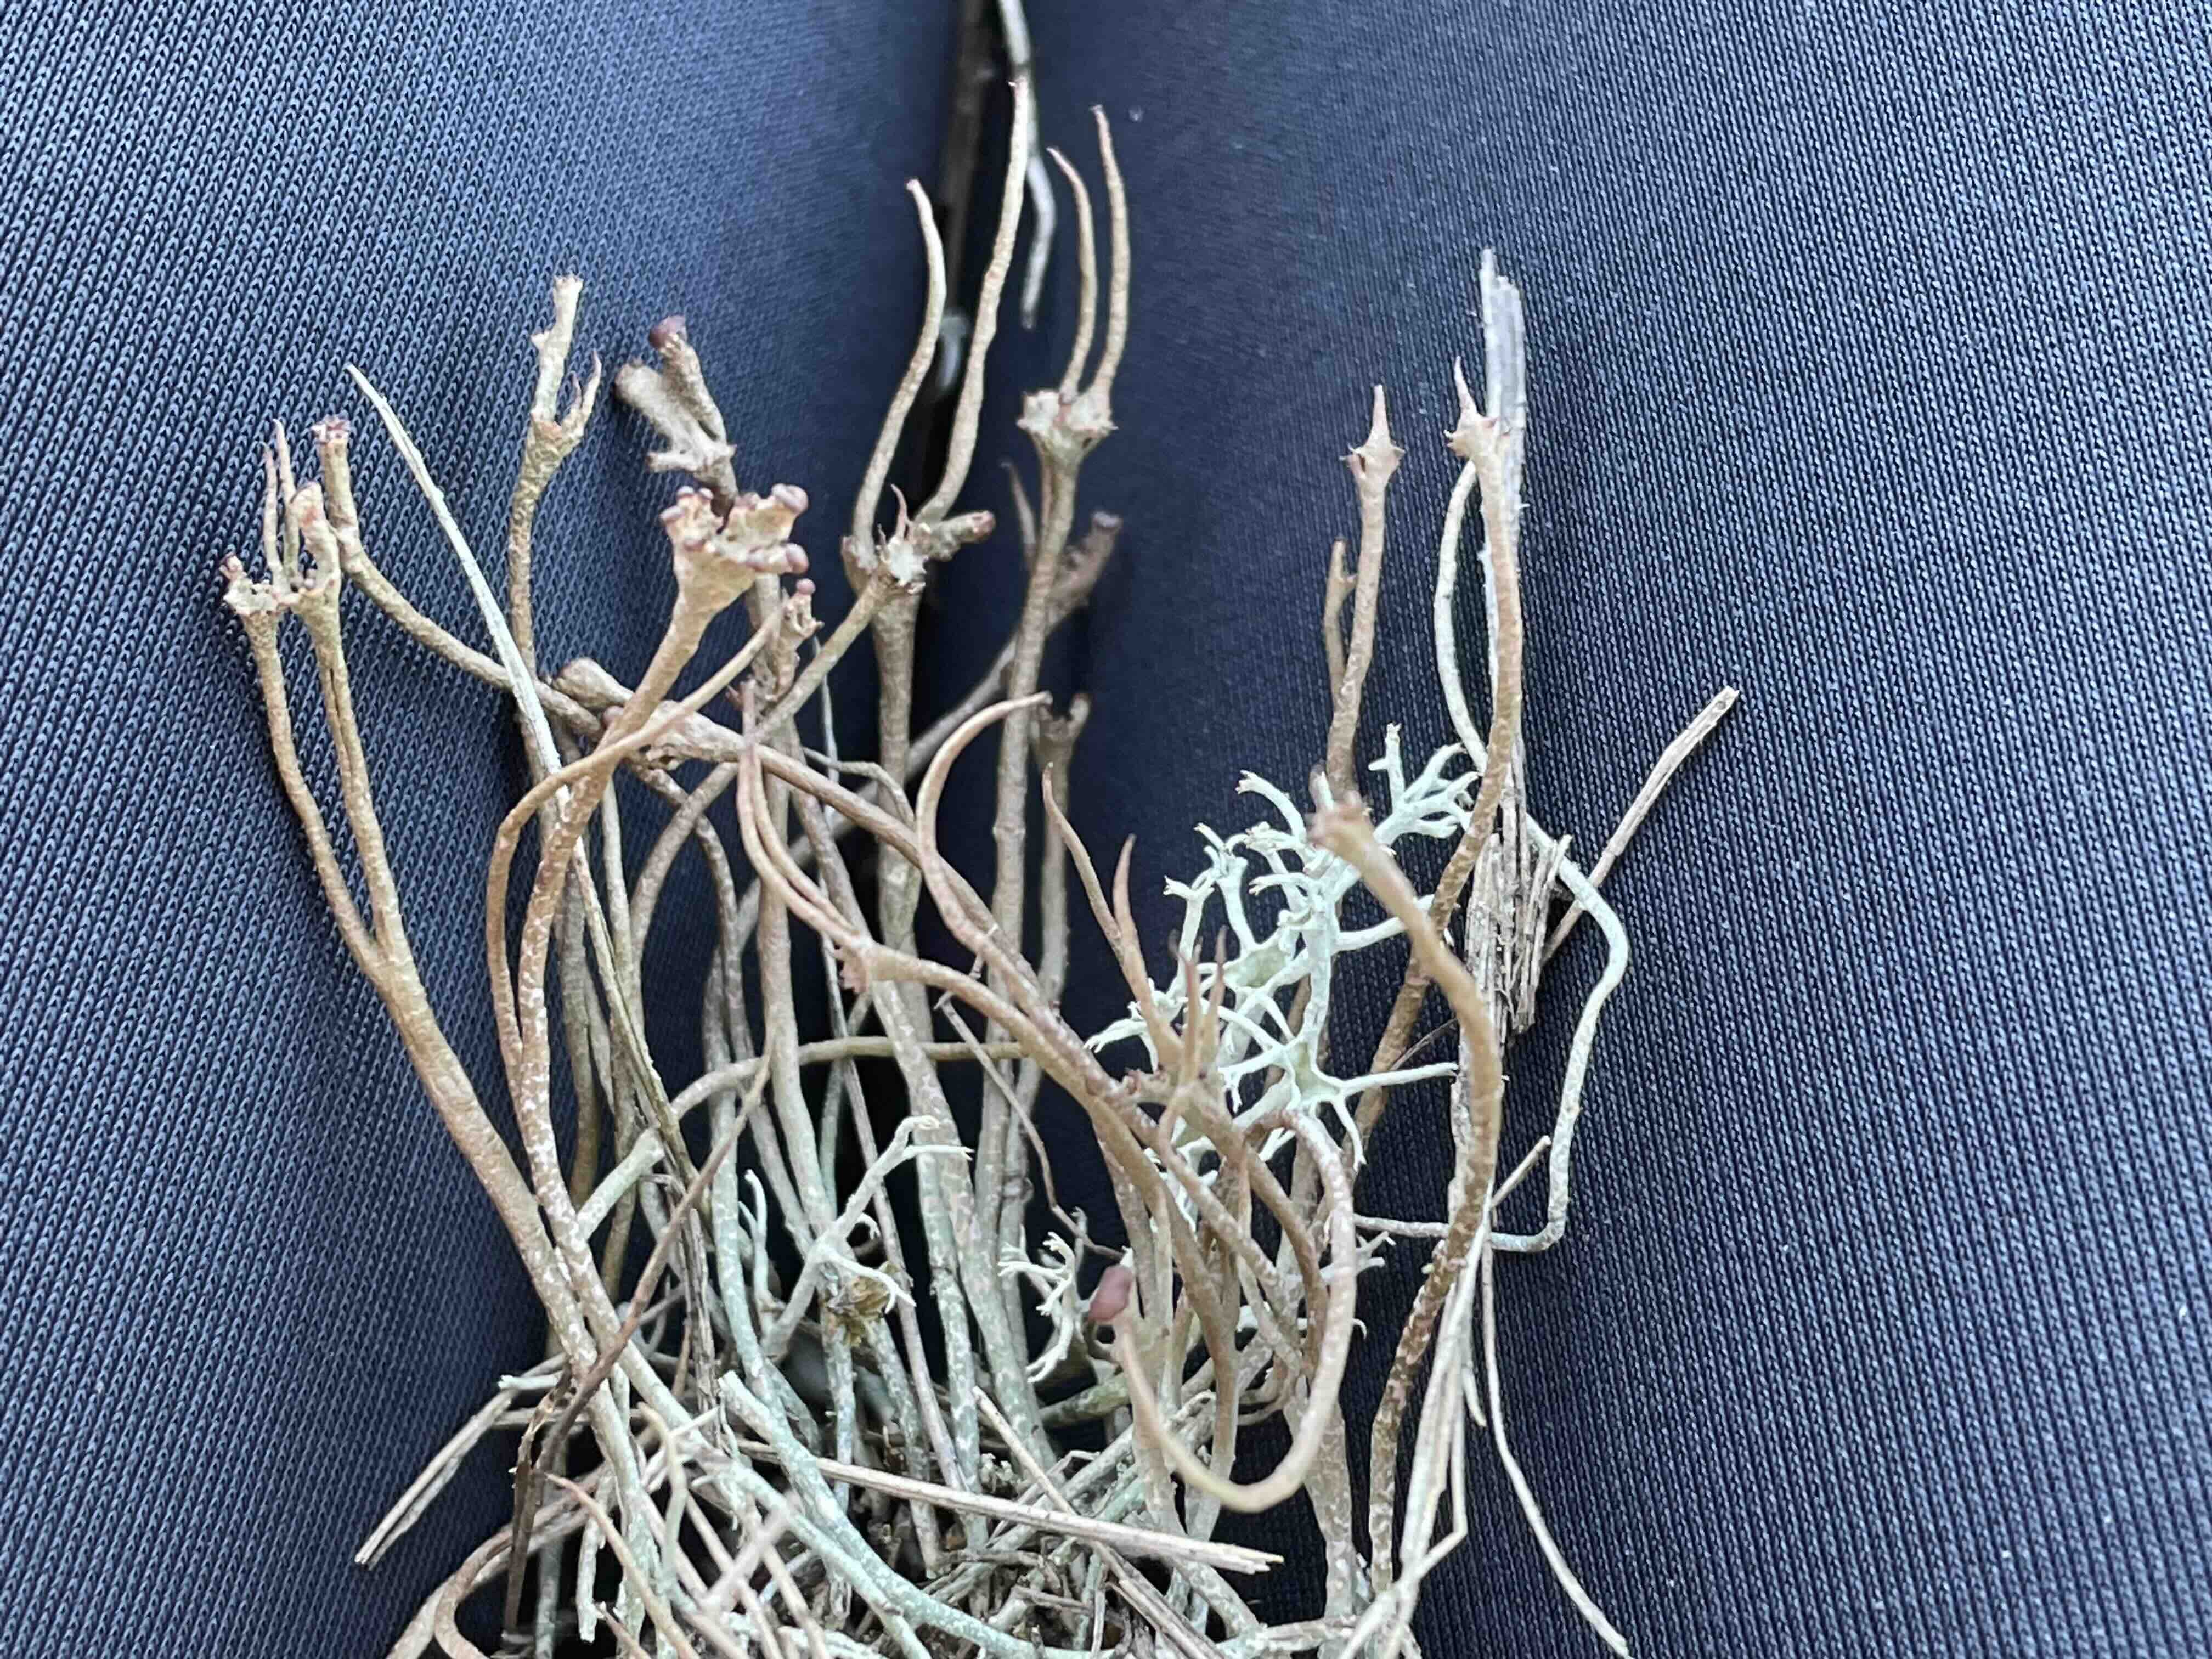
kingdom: Fungi
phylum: Ascomycota
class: Lecanoromycetes
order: Lecanorales
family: Cladoniaceae
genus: Cladonia
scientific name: Cladonia gracilis
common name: slank bægerlav
